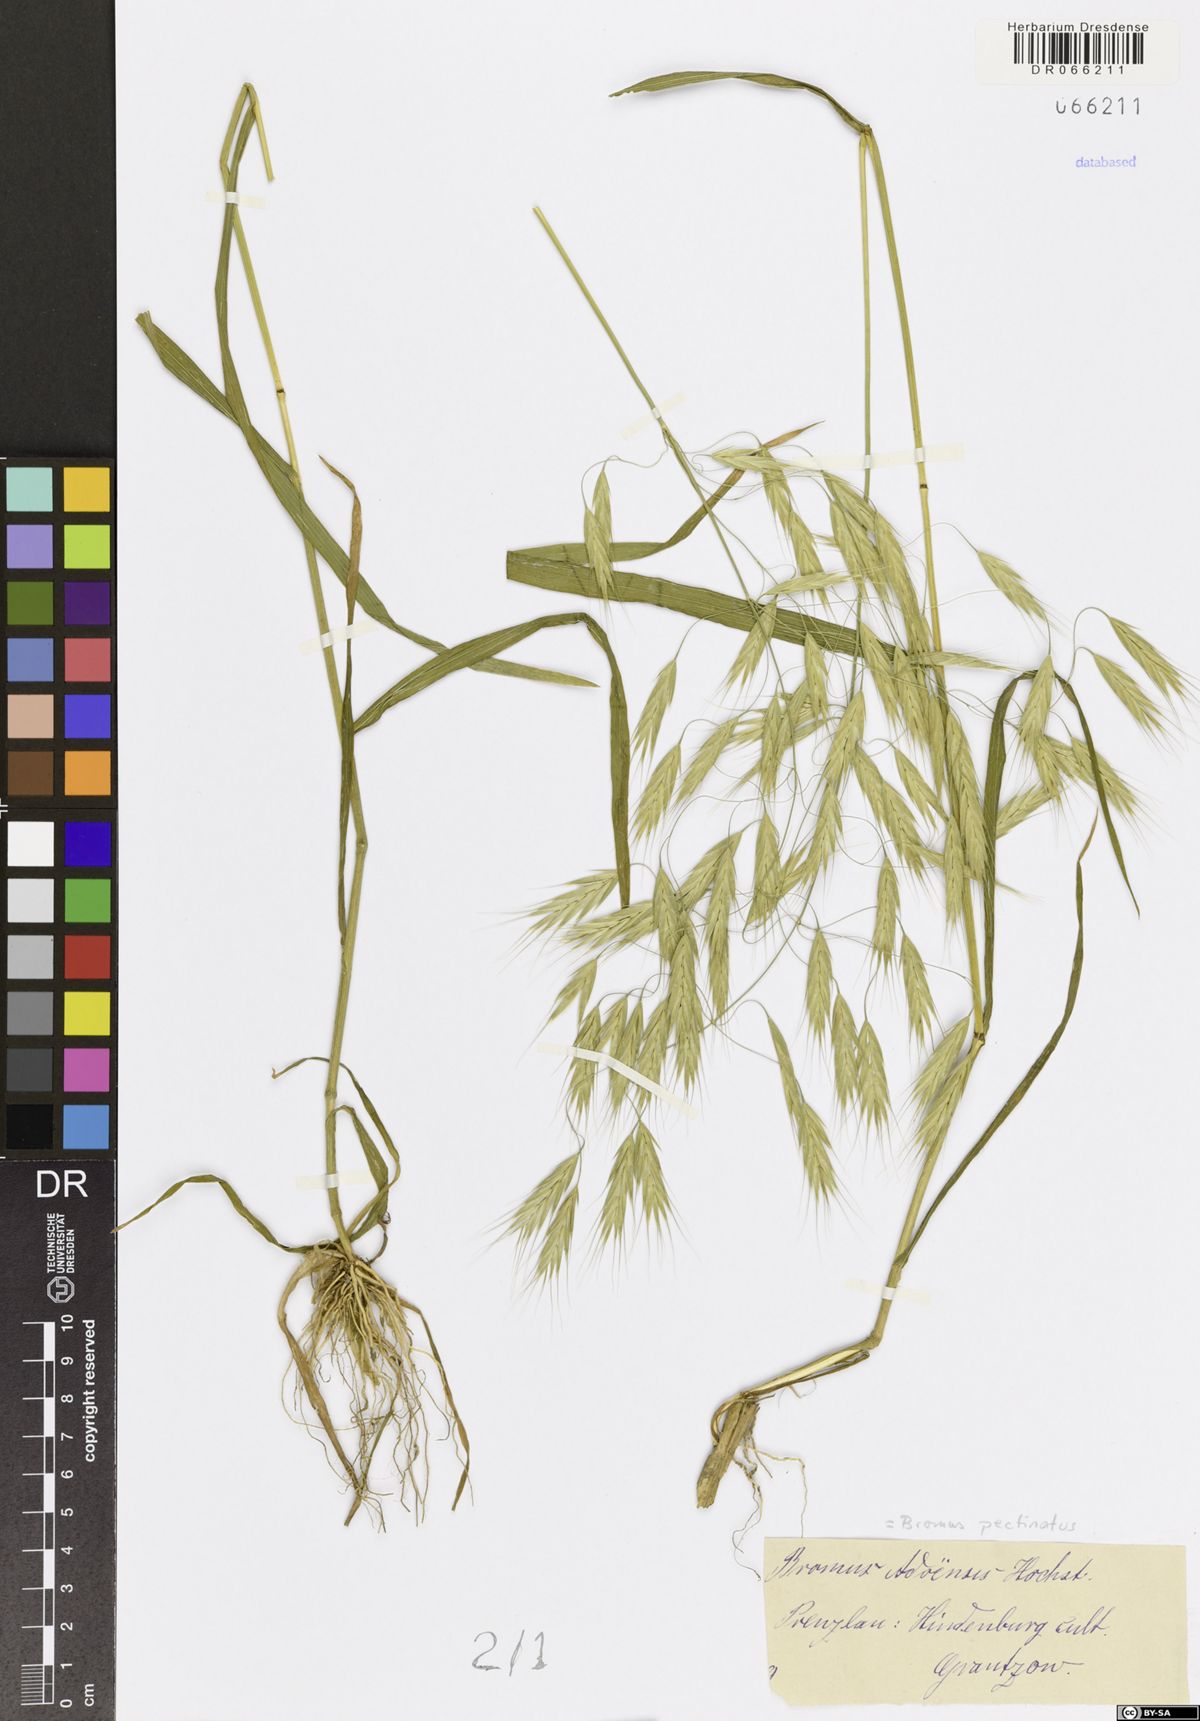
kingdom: Plantae
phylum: Tracheophyta
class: Liliopsida
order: Poales
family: Poaceae
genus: Bromus
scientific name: Bromus pectinatus
